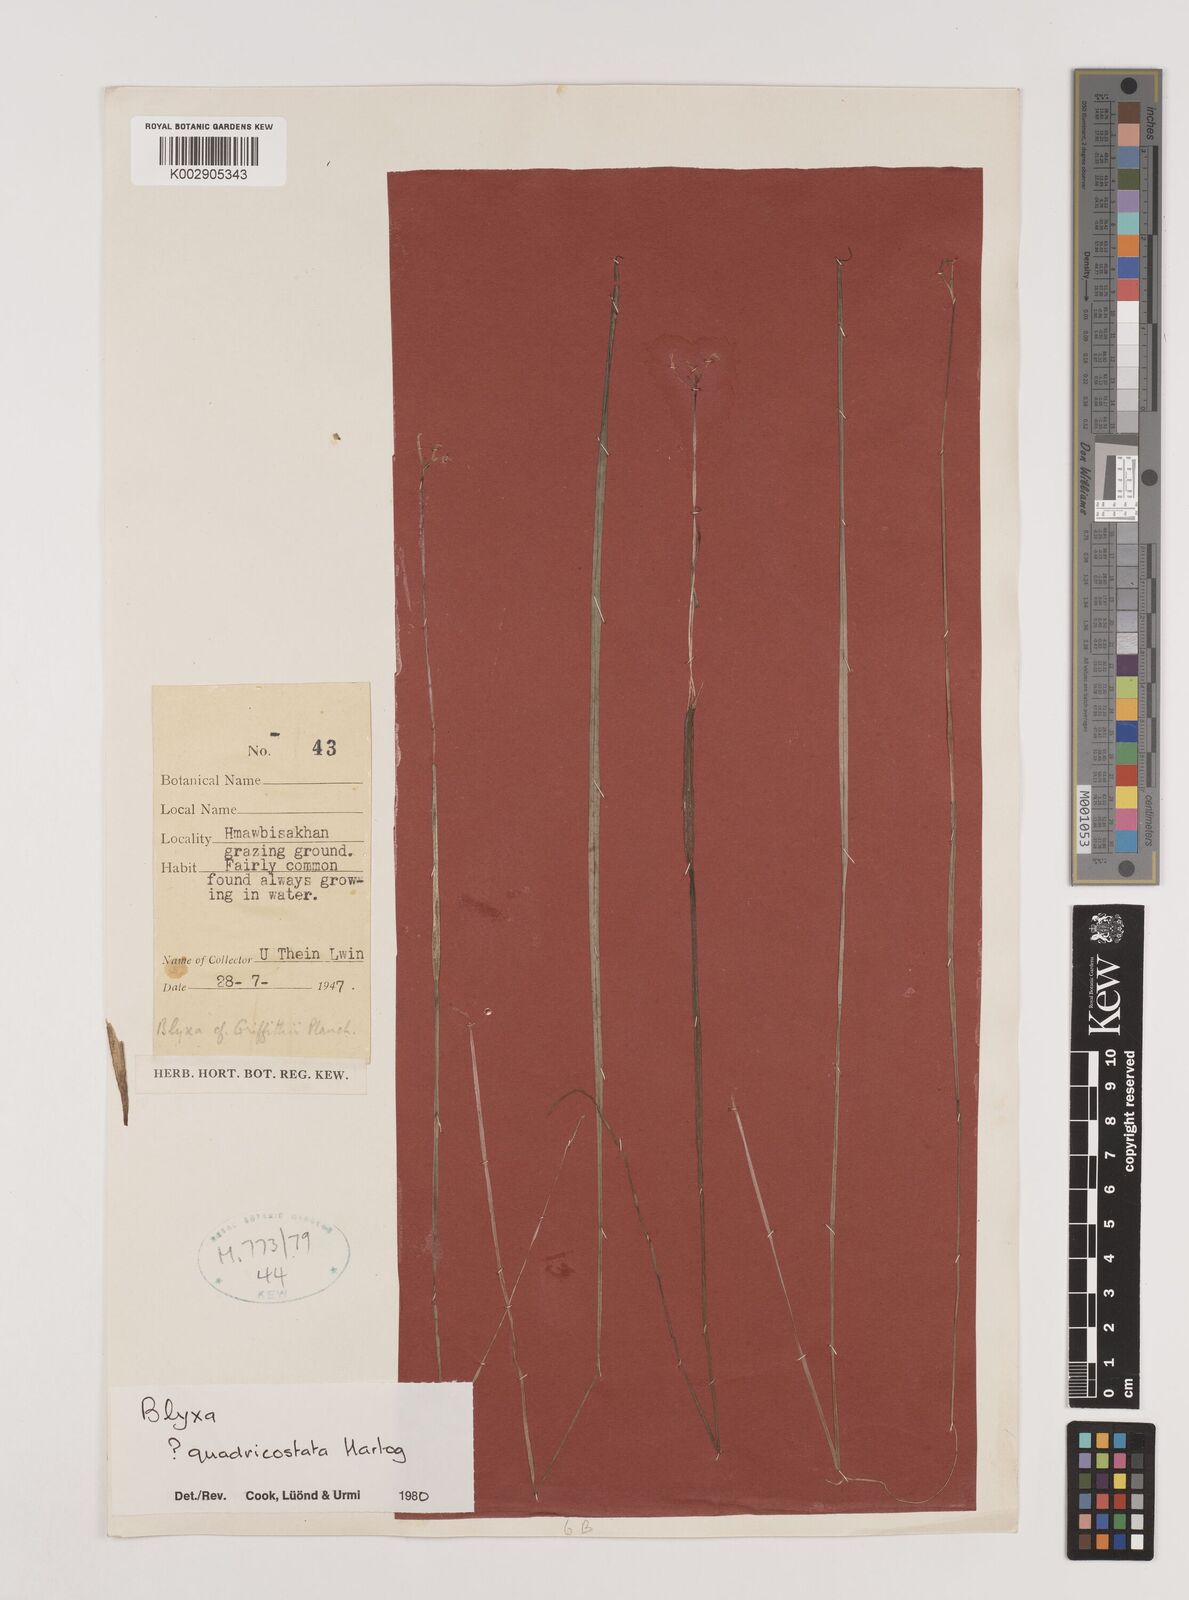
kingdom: Plantae
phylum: Tracheophyta
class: Liliopsida
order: Alismatales
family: Hydrocharitaceae
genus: Blyxa
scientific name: Blyxa quadricostata
